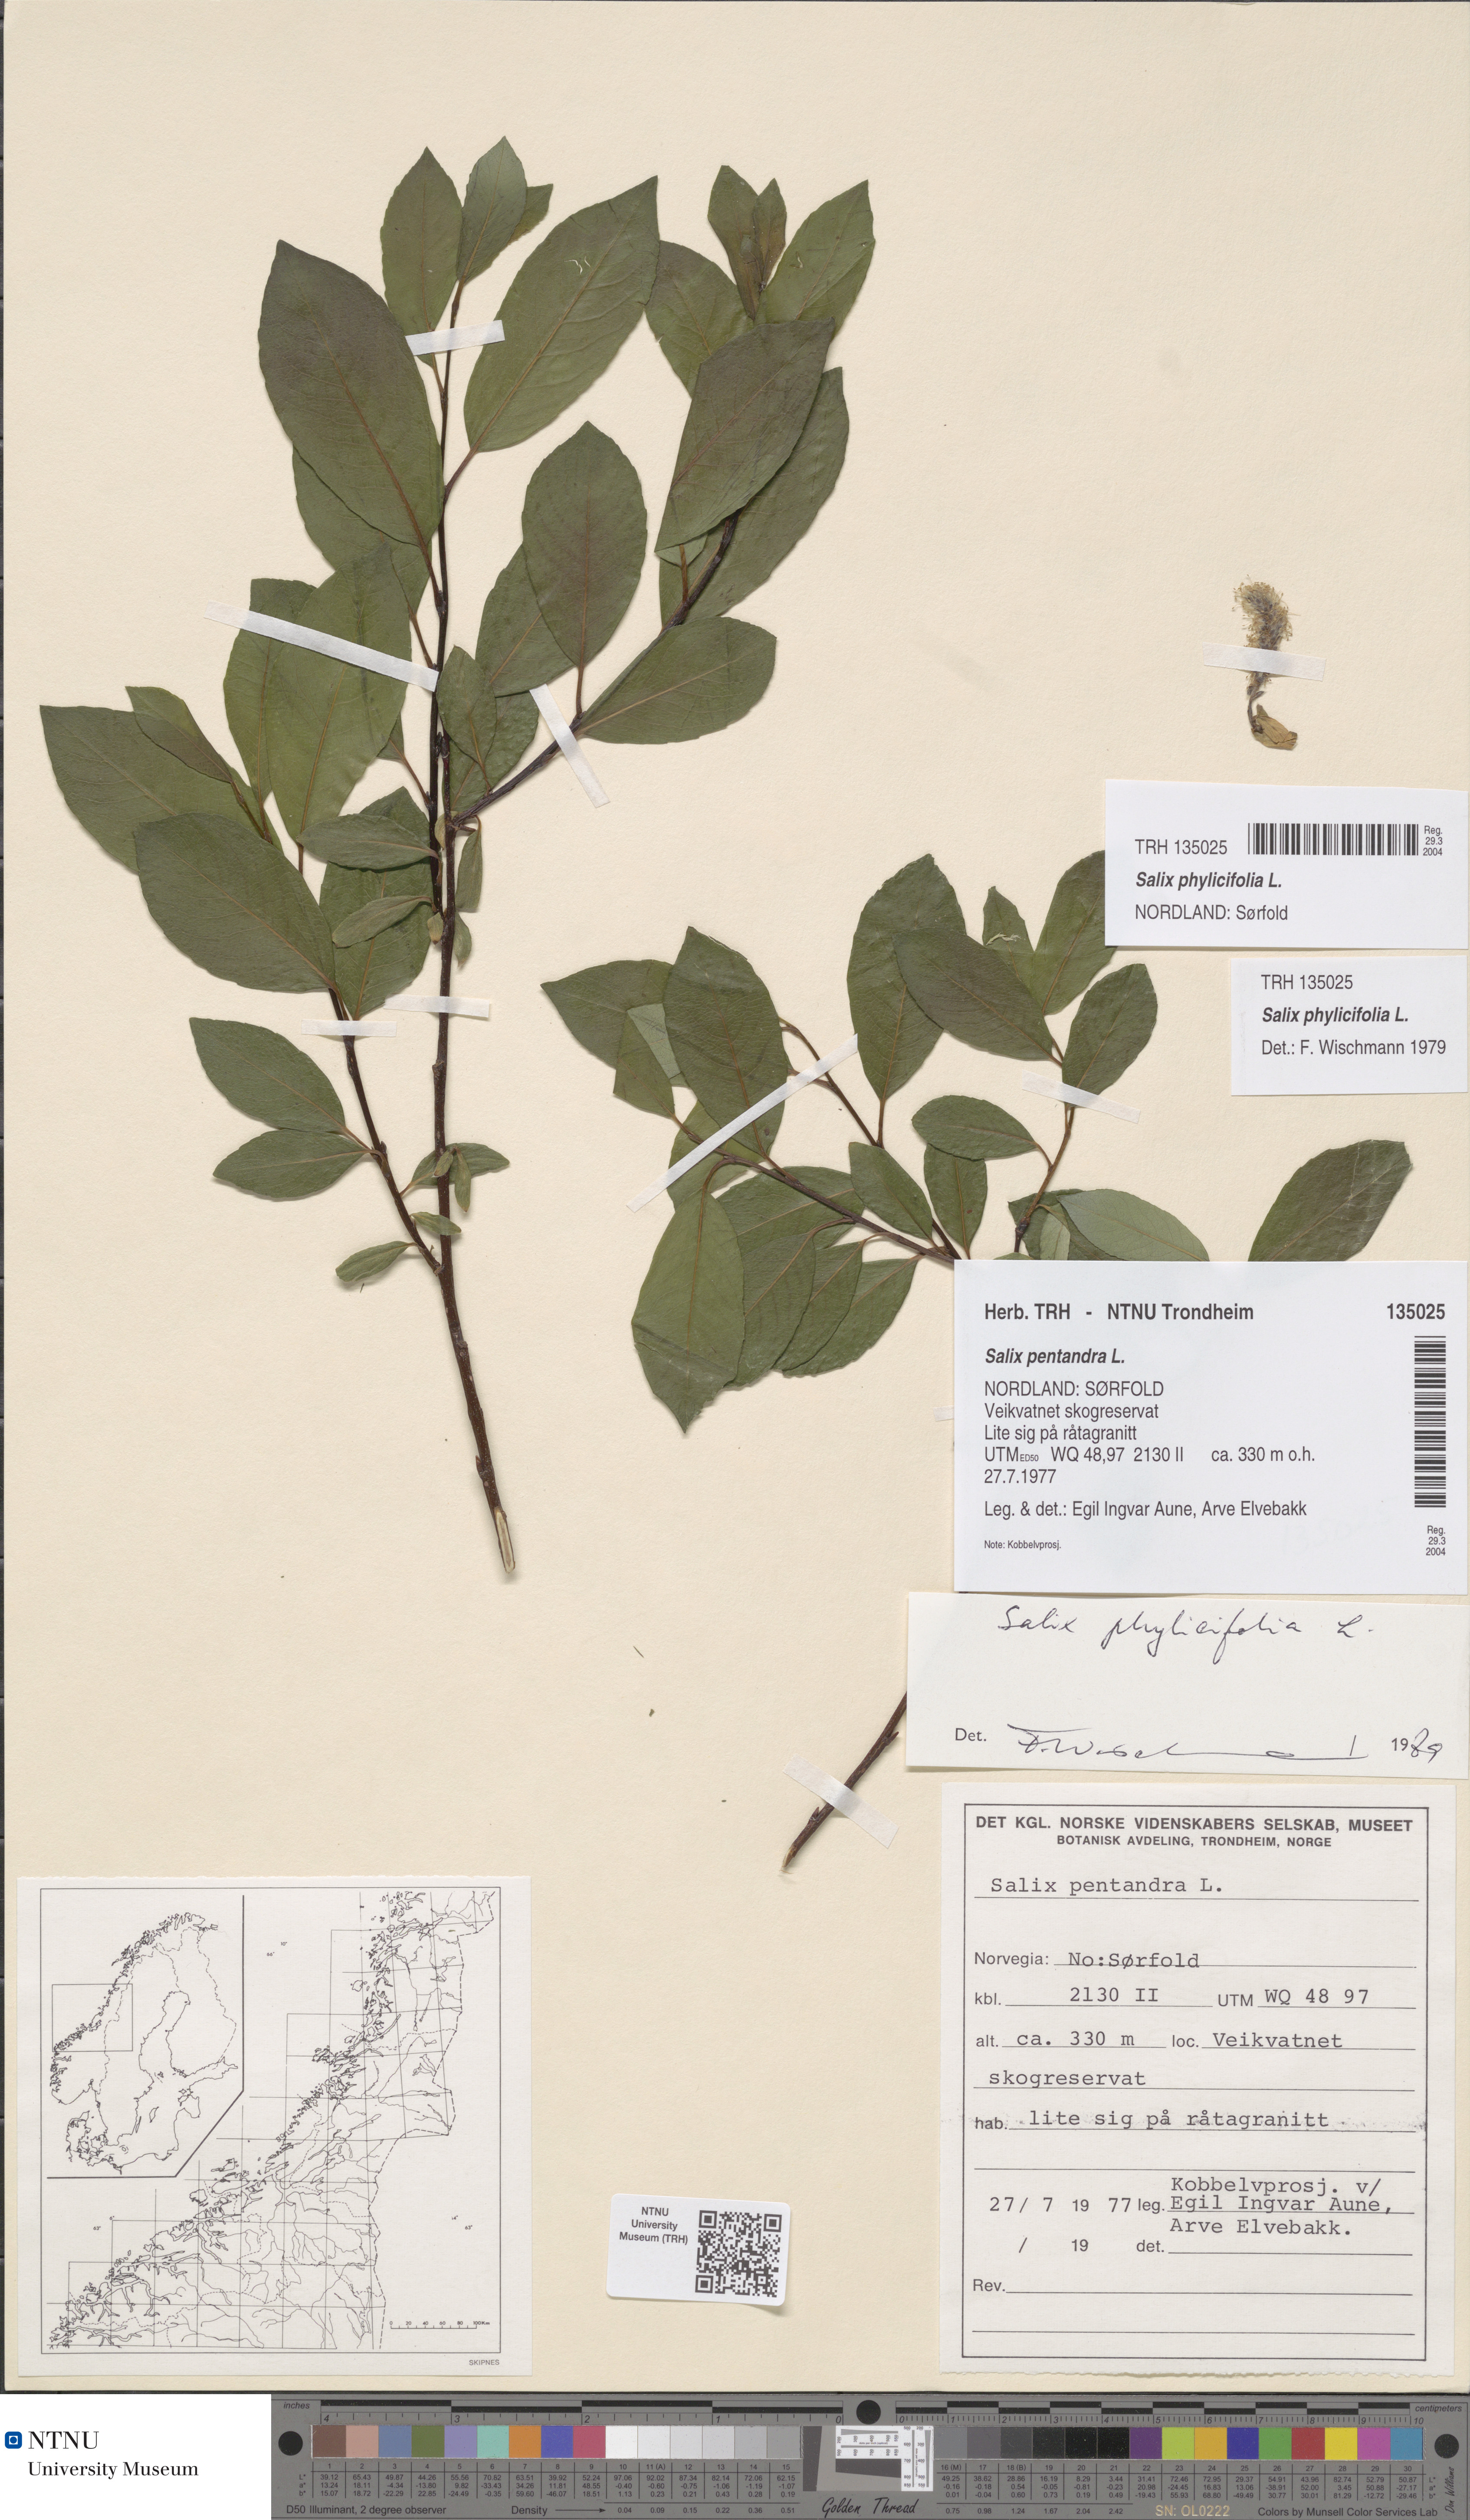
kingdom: Plantae
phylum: Tracheophyta
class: Magnoliopsida
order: Malpighiales
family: Salicaceae
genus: Salix
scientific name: Salix phylicifolia
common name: Tea-leaved willow
